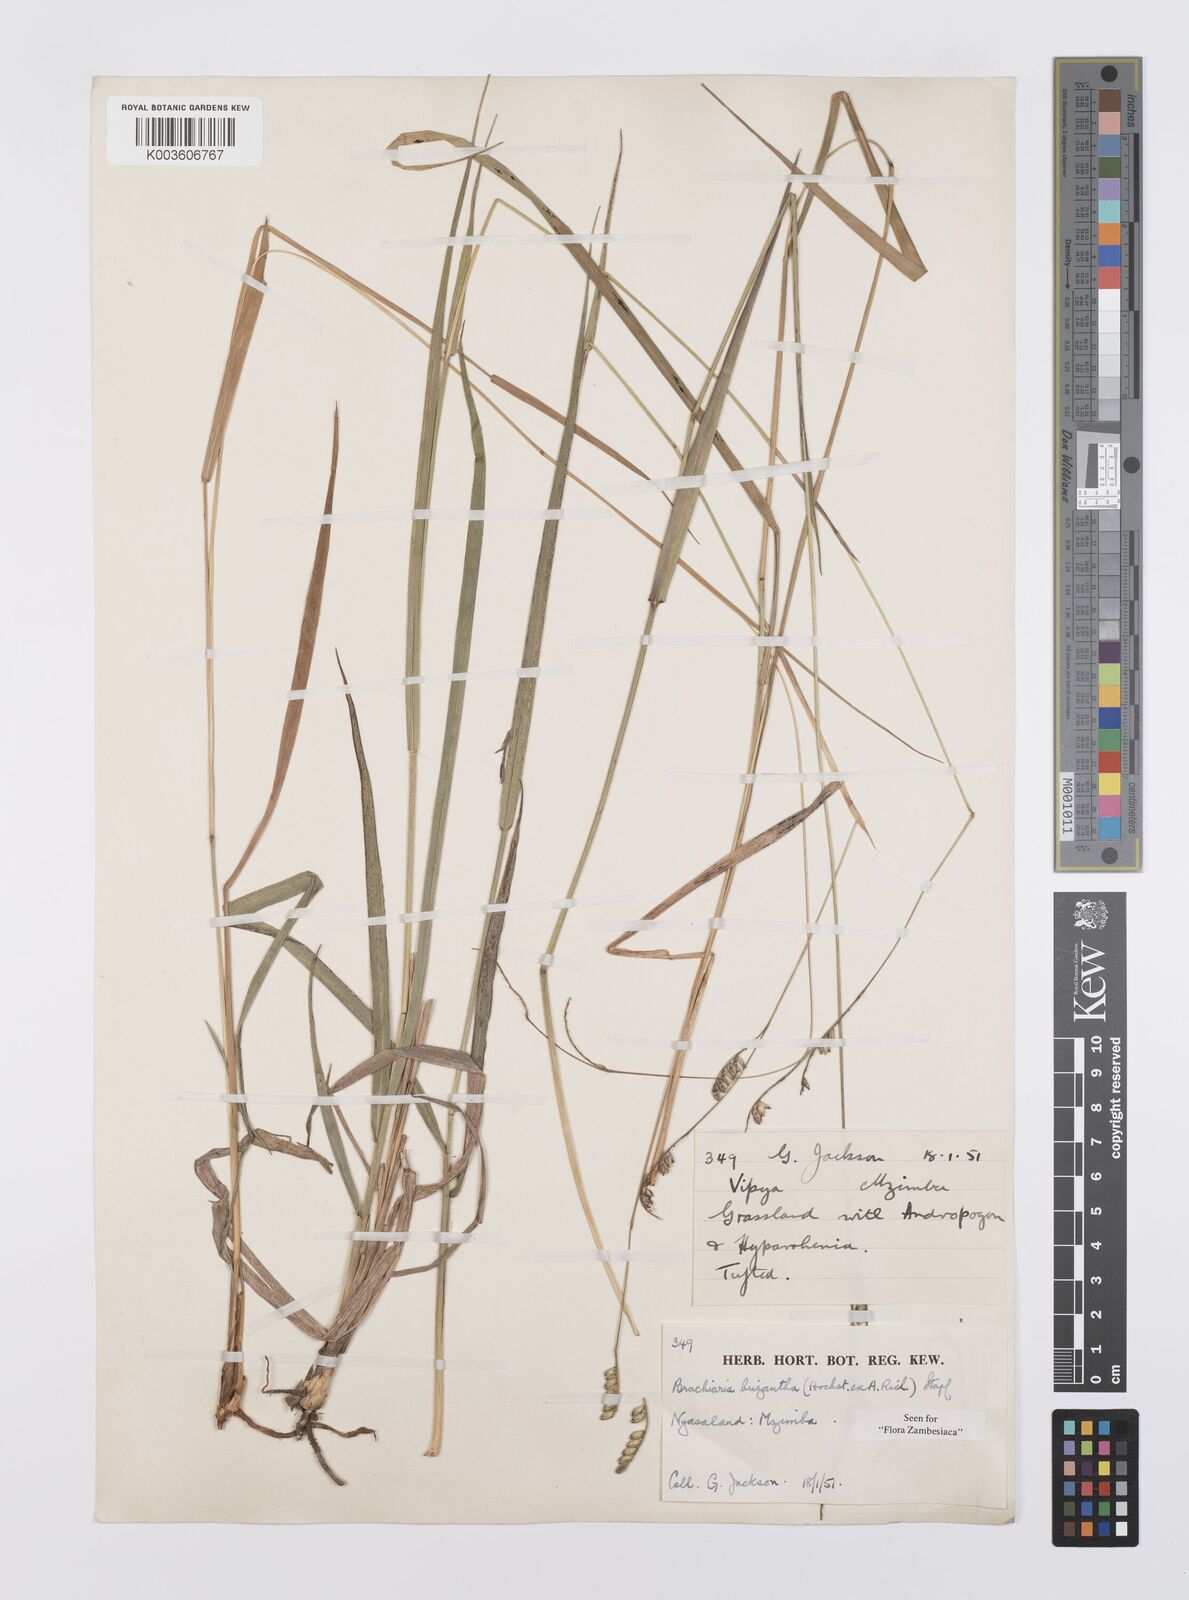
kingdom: Plantae
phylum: Tracheophyta
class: Liliopsida
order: Poales
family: Poaceae
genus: Urochloa
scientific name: Urochloa brizantha
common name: Palisade signalgrass
